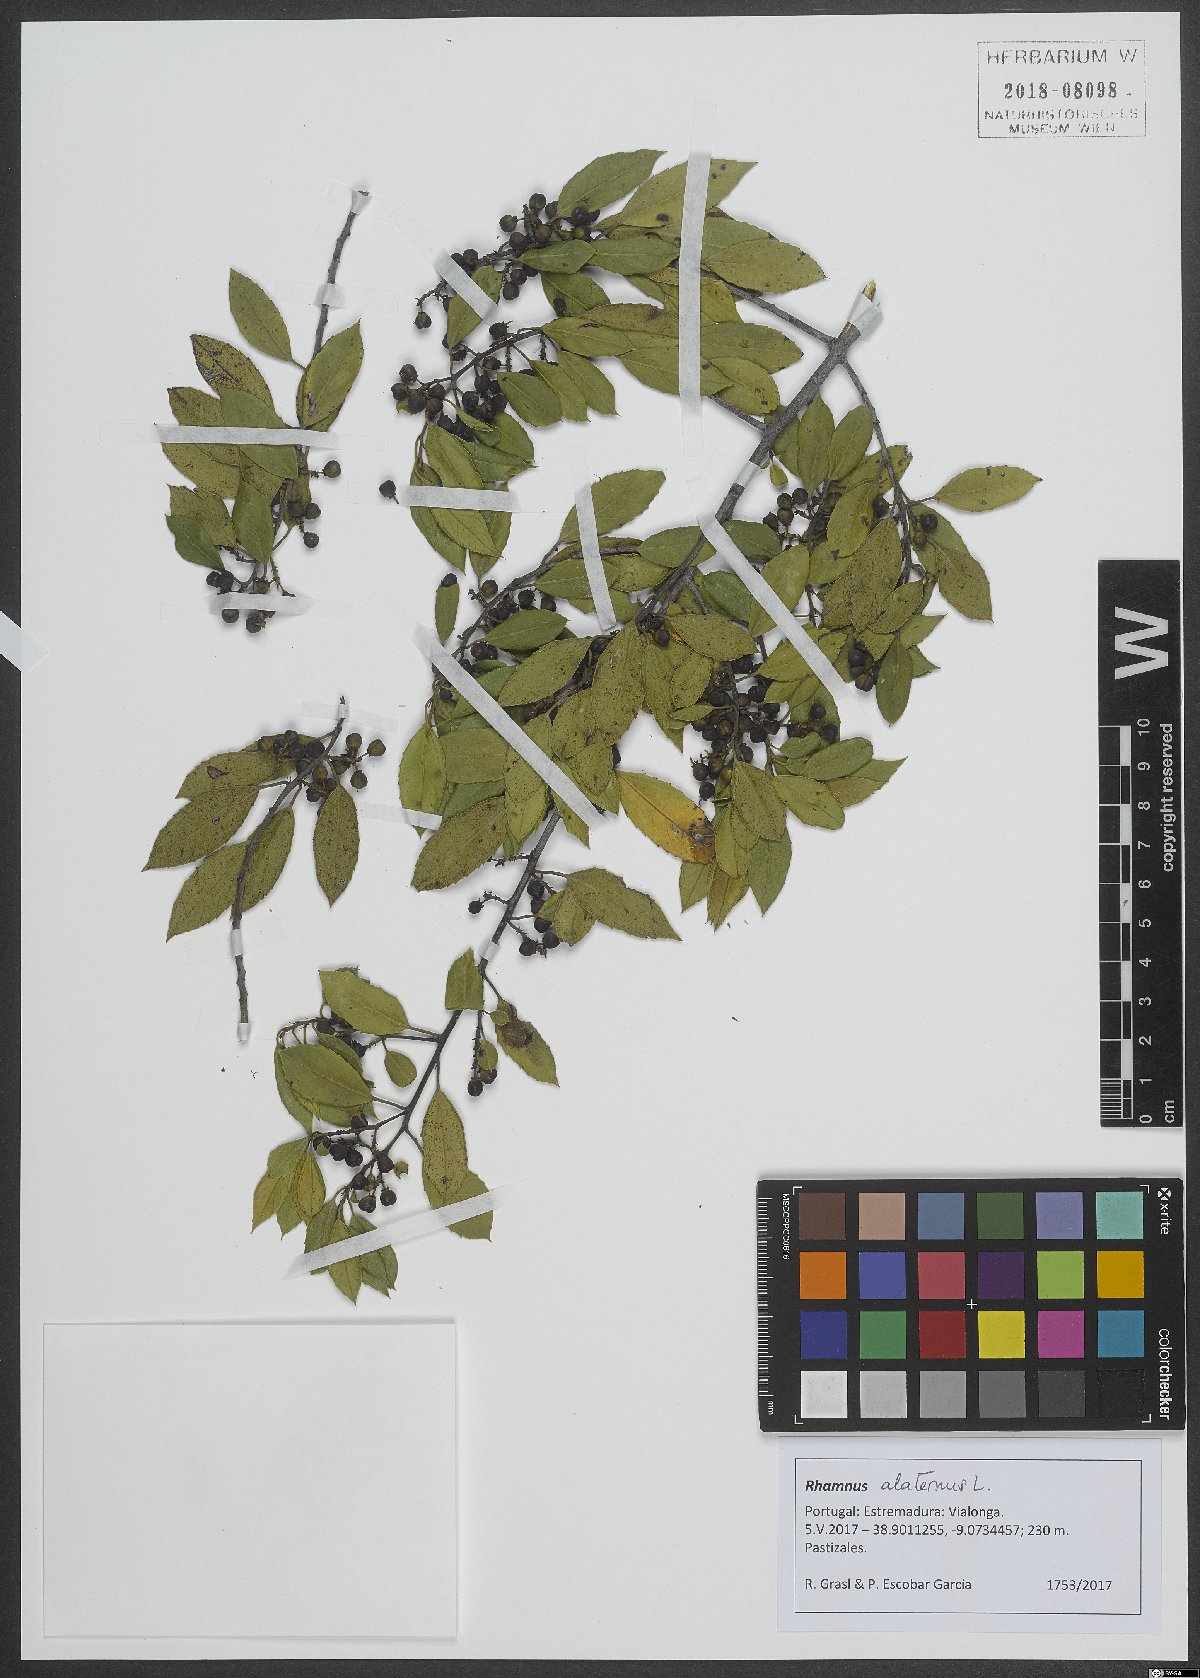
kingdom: Plantae
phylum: Tracheophyta
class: Magnoliopsida
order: Rosales
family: Rhamnaceae
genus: Rhamnus
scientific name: Rhamnus alaternus
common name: Mediterranean buckthorn
